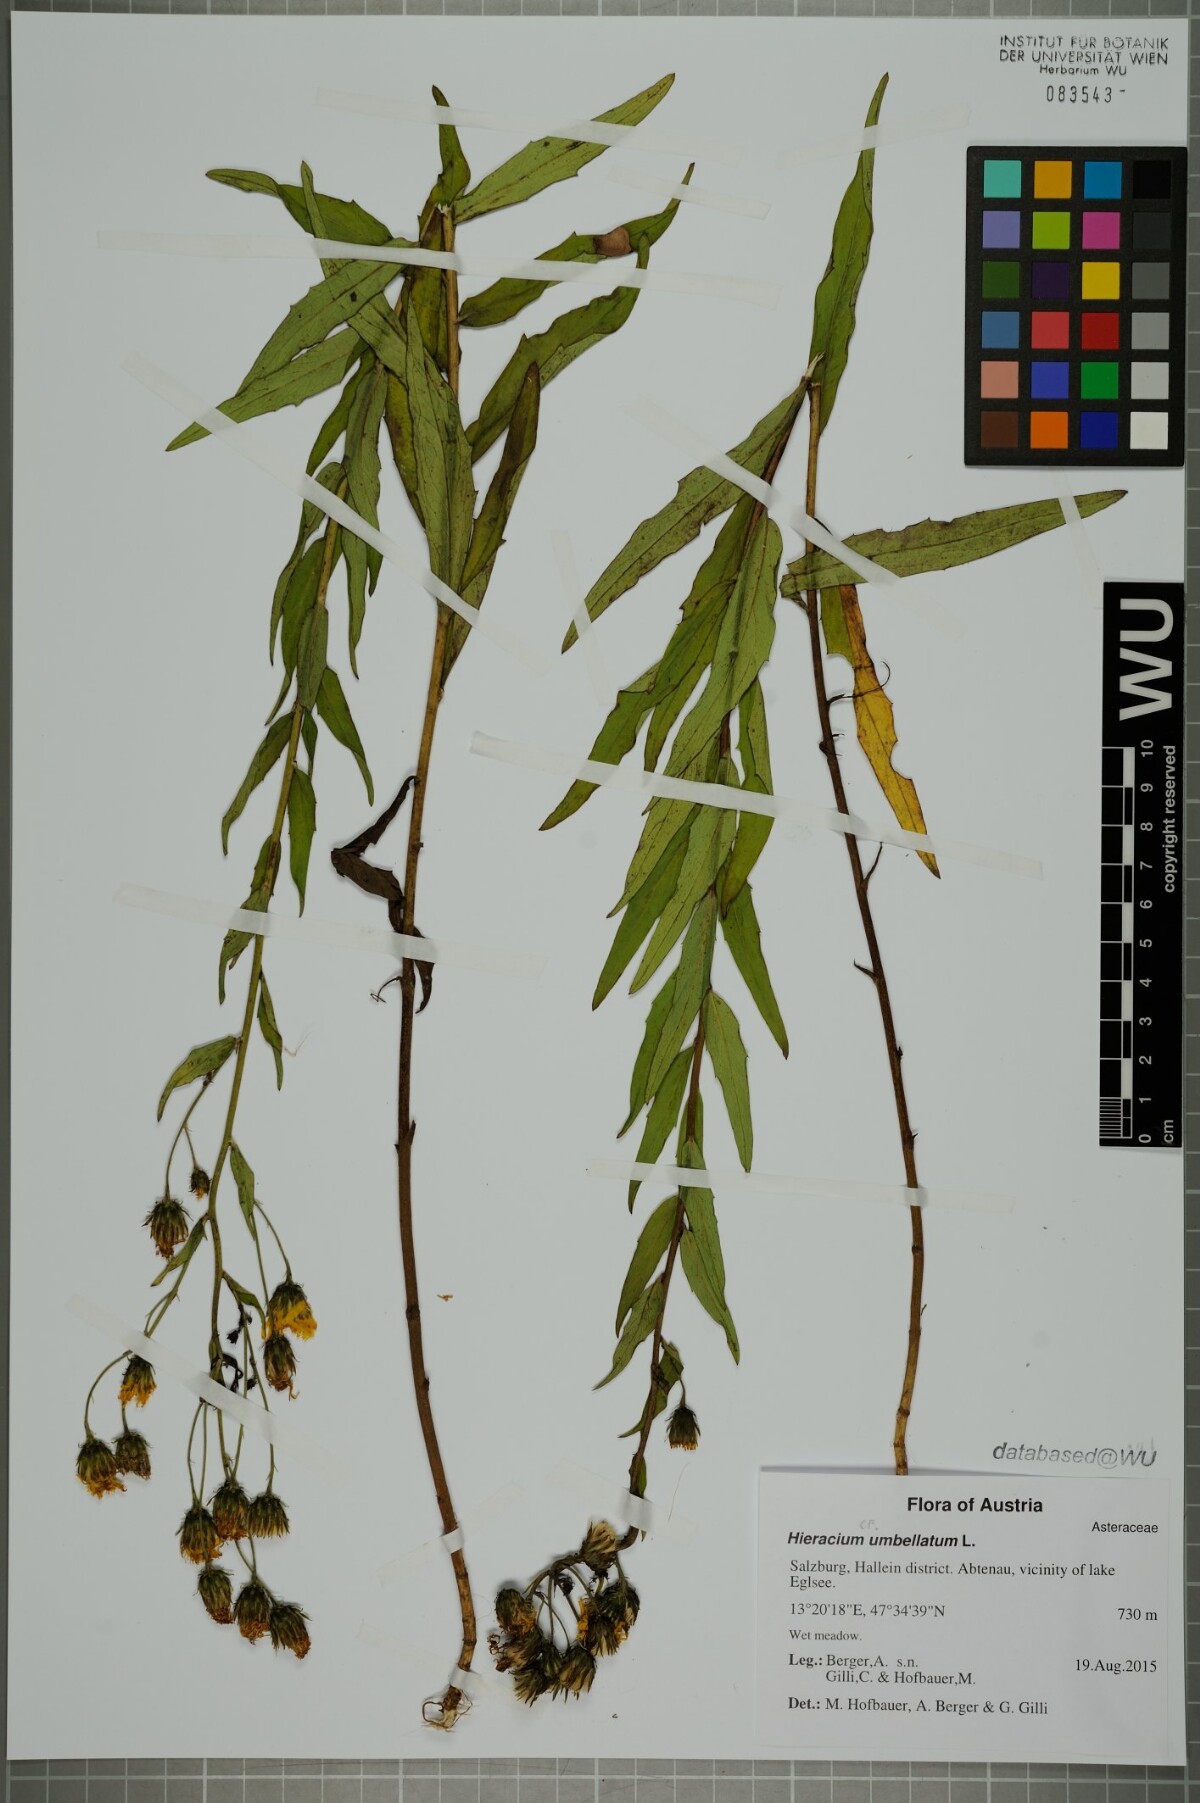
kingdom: Plantae
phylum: Tracheophyta
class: Magnoliopsida
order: Asterales
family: Asteraceae
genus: Hieracium
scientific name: Hieracium umbellatum
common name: Northern hawkweed
